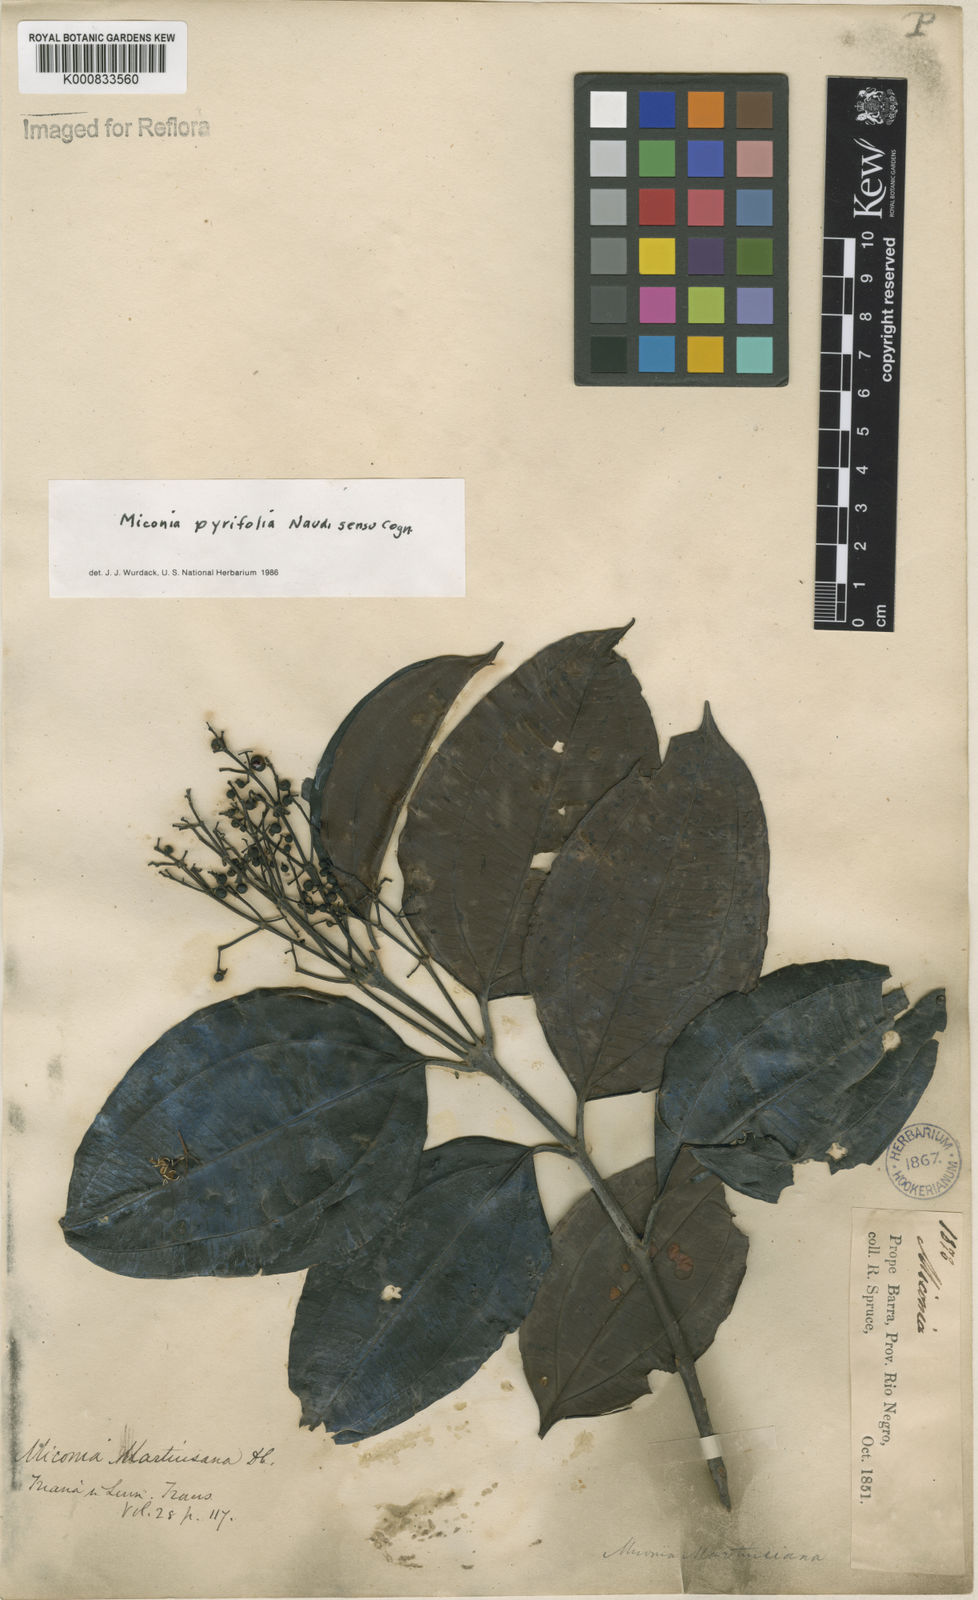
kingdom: Plantae
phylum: Tracheophyta
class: Magnoliopsida
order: Myrtales
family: Melastomataceae
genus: Miconia
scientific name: Miconia pyrifolia
